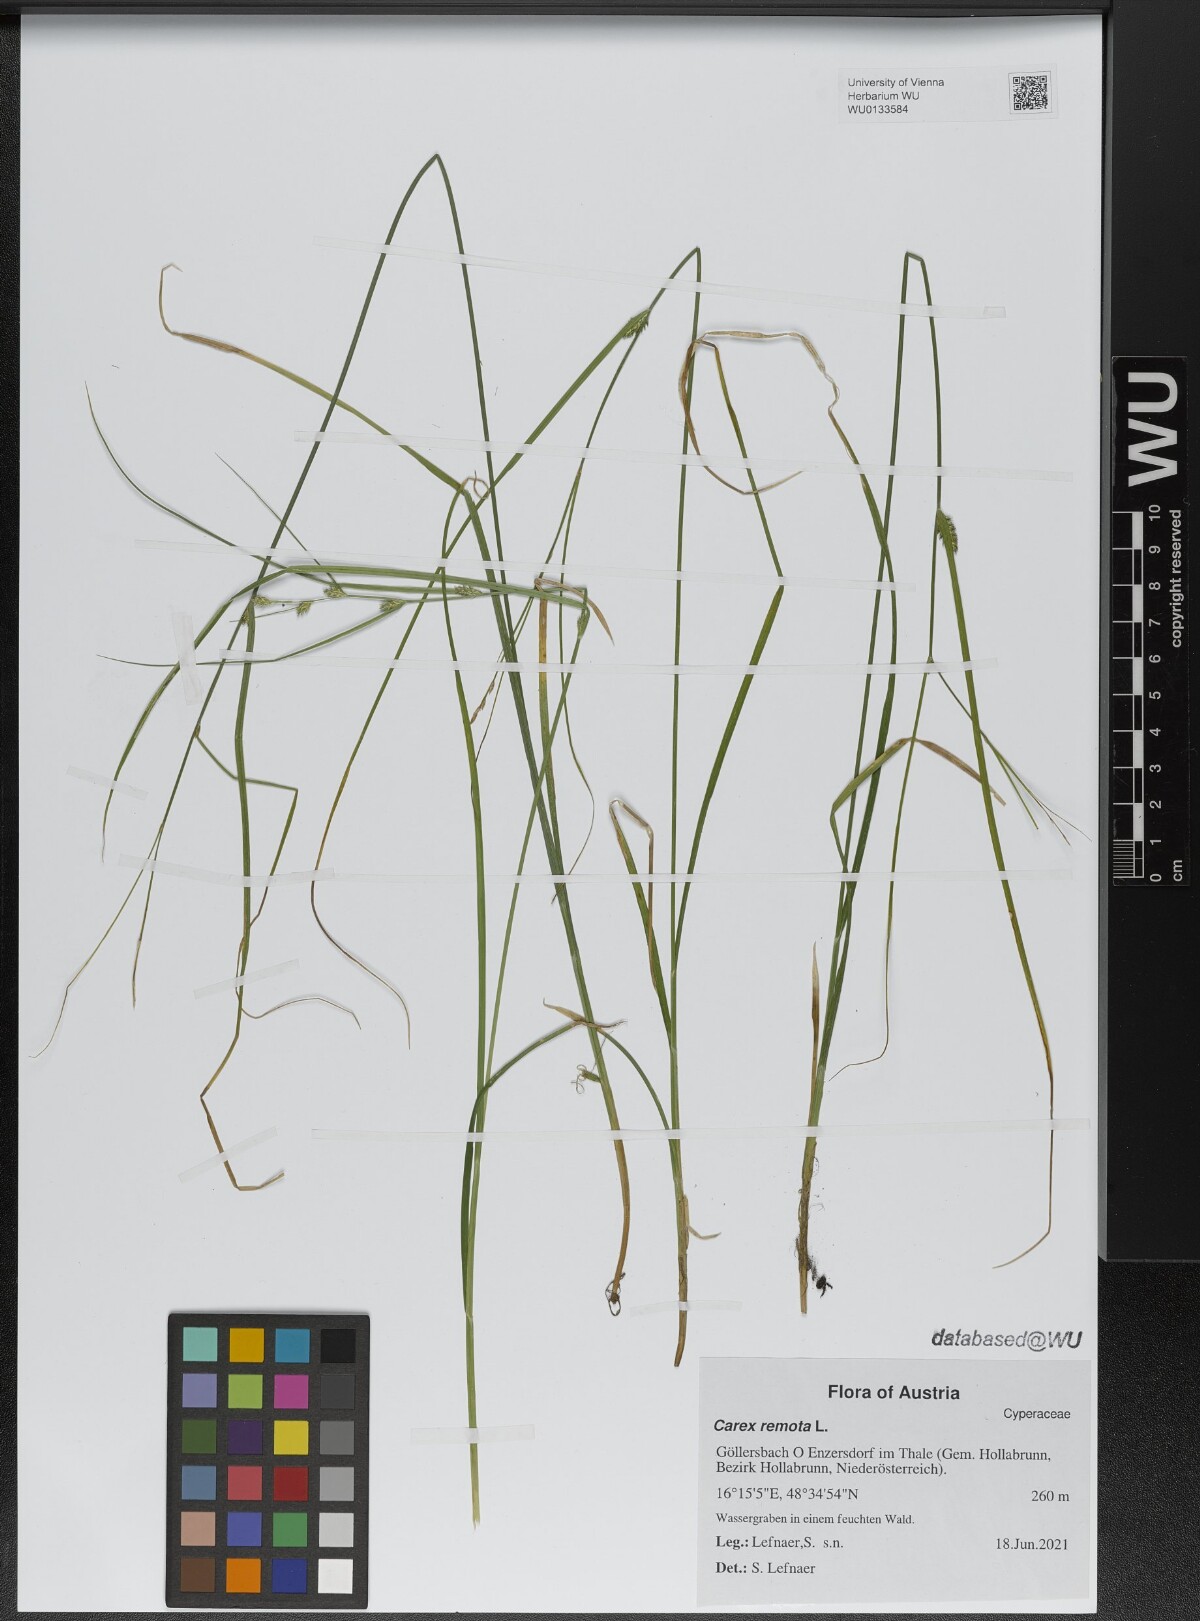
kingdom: Plantae
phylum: Tracheophyta
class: Liliopsida
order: Poales
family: Cyperaceae
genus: Carex
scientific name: Carex remota
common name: Remote sedge
